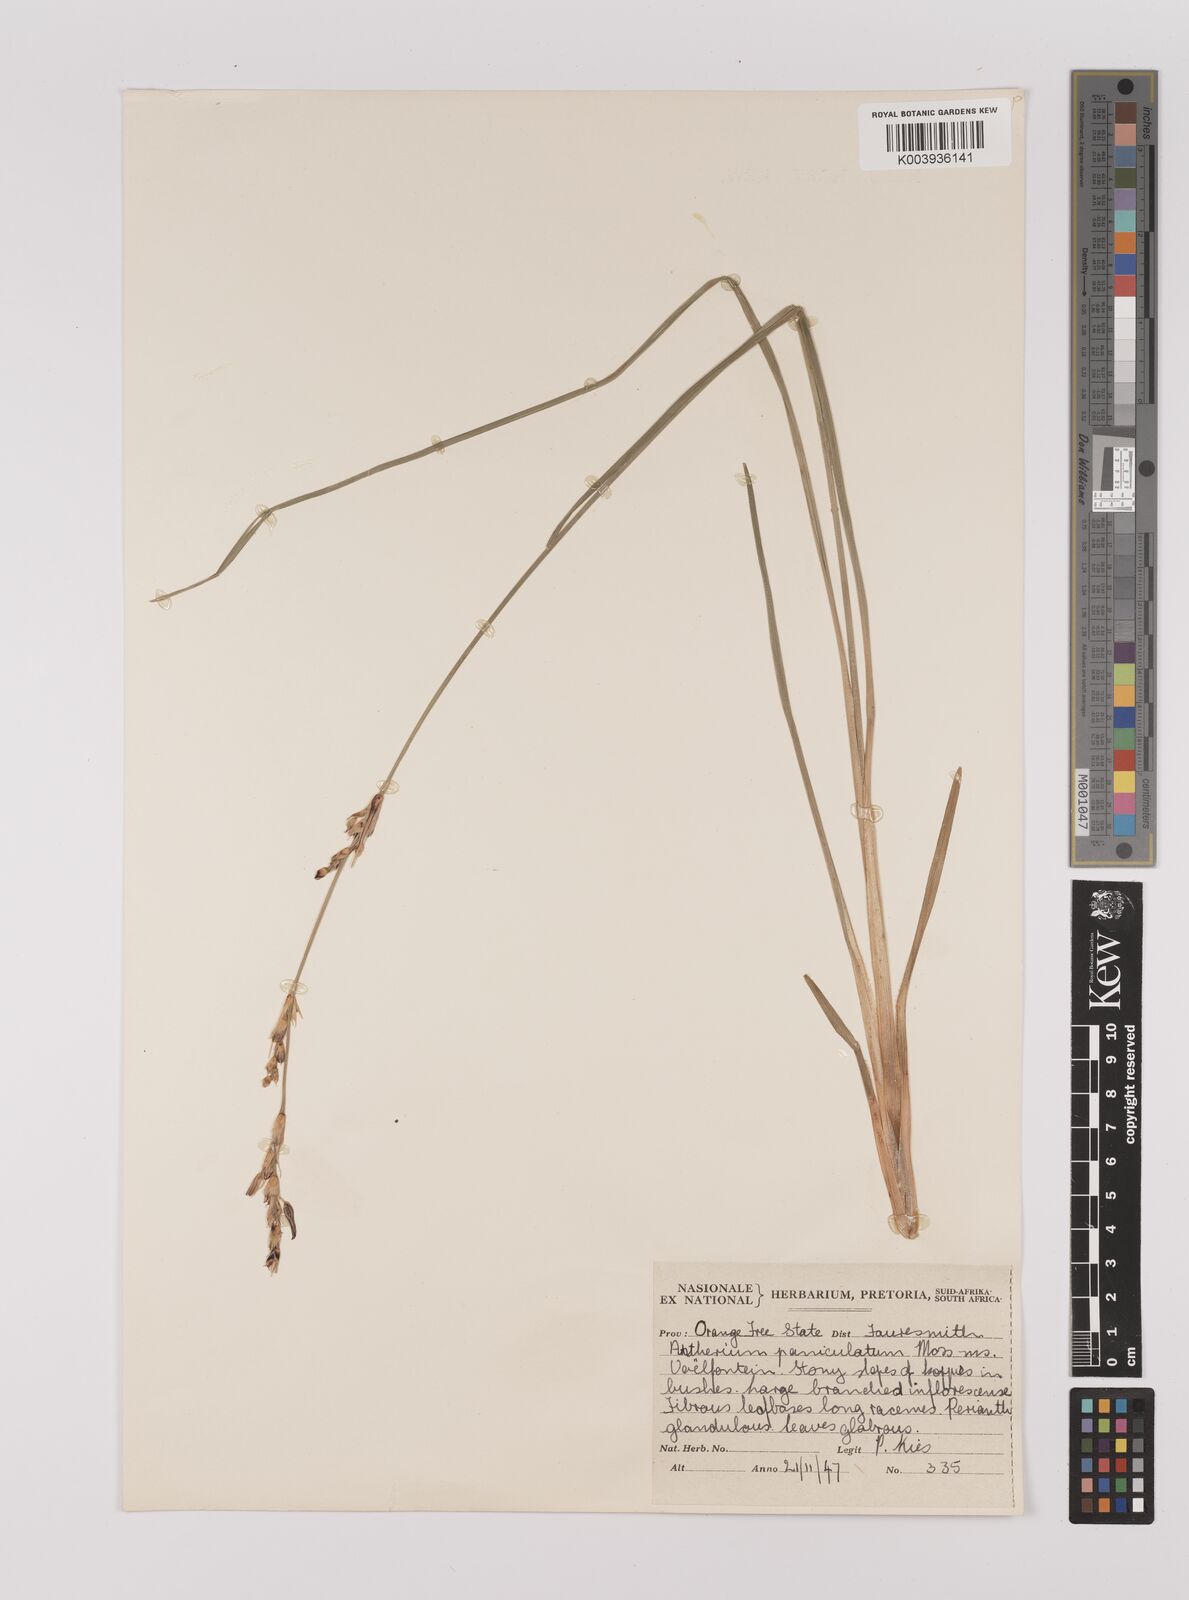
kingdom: Plantae
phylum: Tracheophyta
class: Liliopsida
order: Asparagales
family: Asparagaceae
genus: Chlorophytum
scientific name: Chlorophytum
